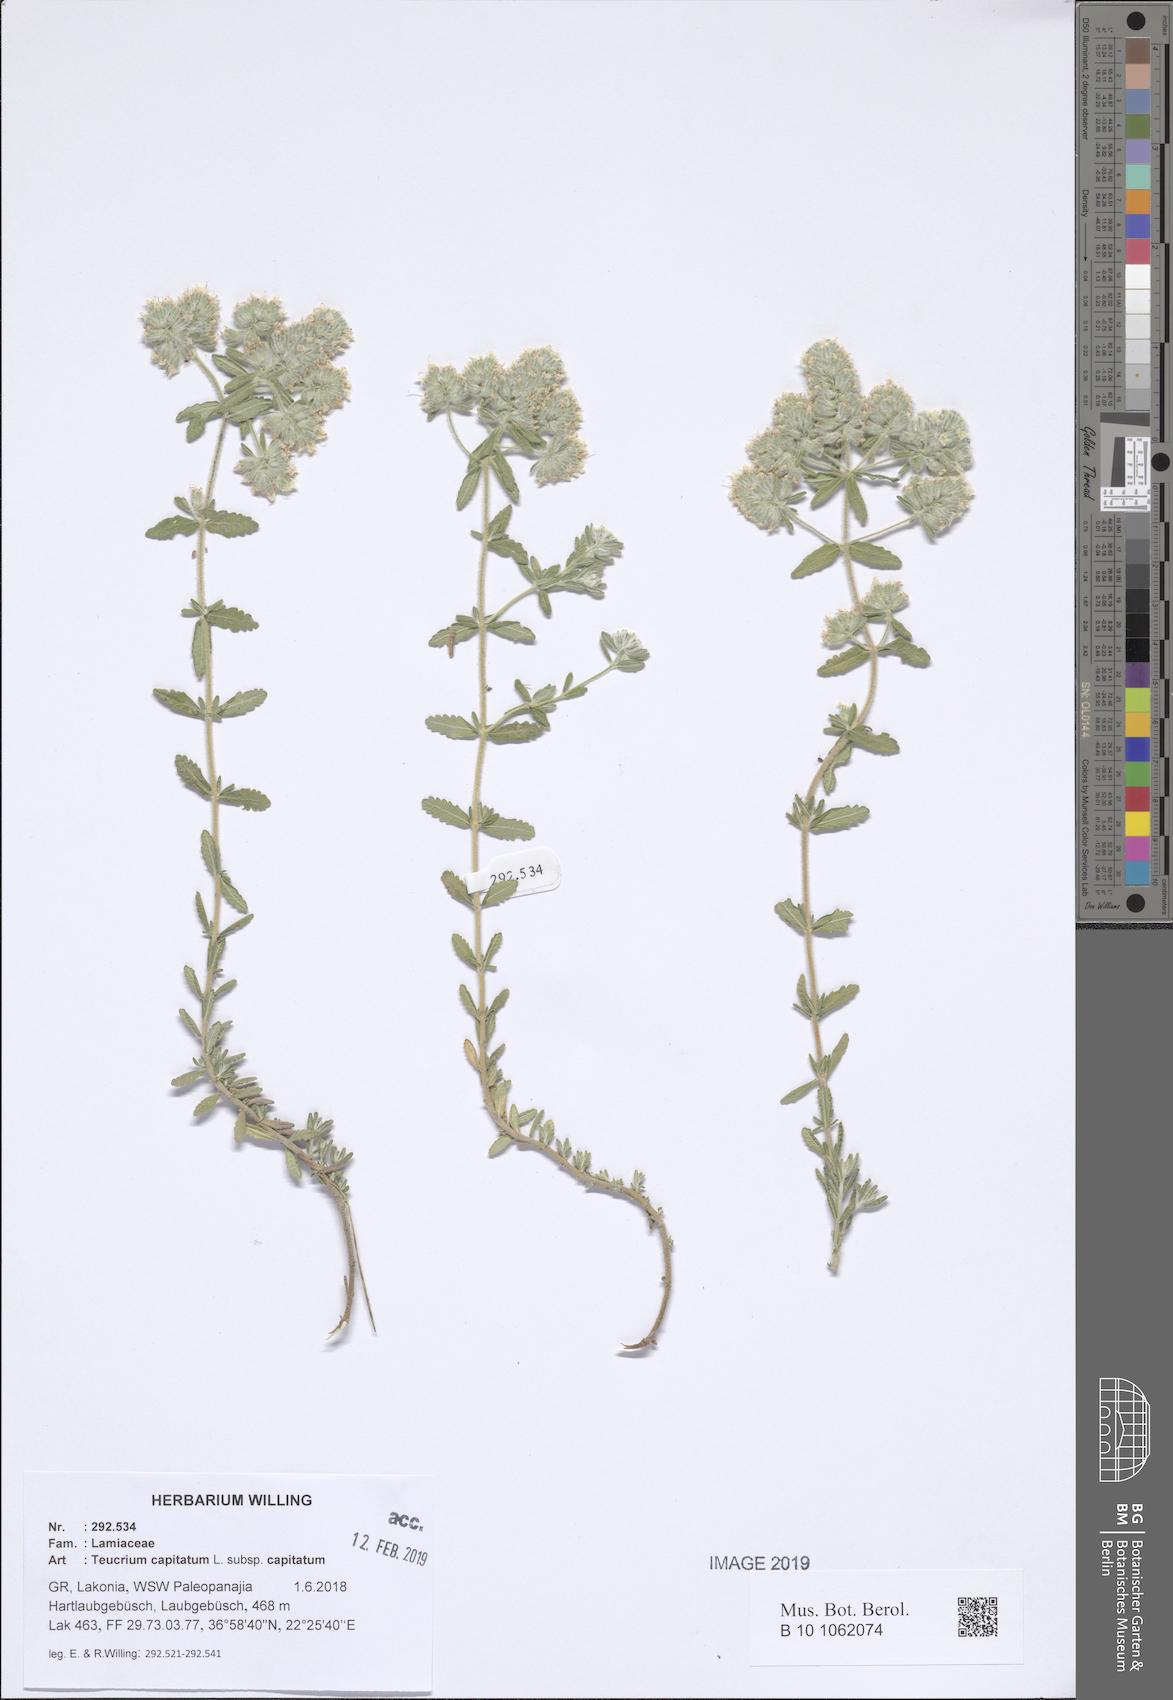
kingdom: Plantae
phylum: Tracheophyta
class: Magnoliopsida
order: Lamiales
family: Lamiaceae
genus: Teucrium
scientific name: Teucrium capitatum
